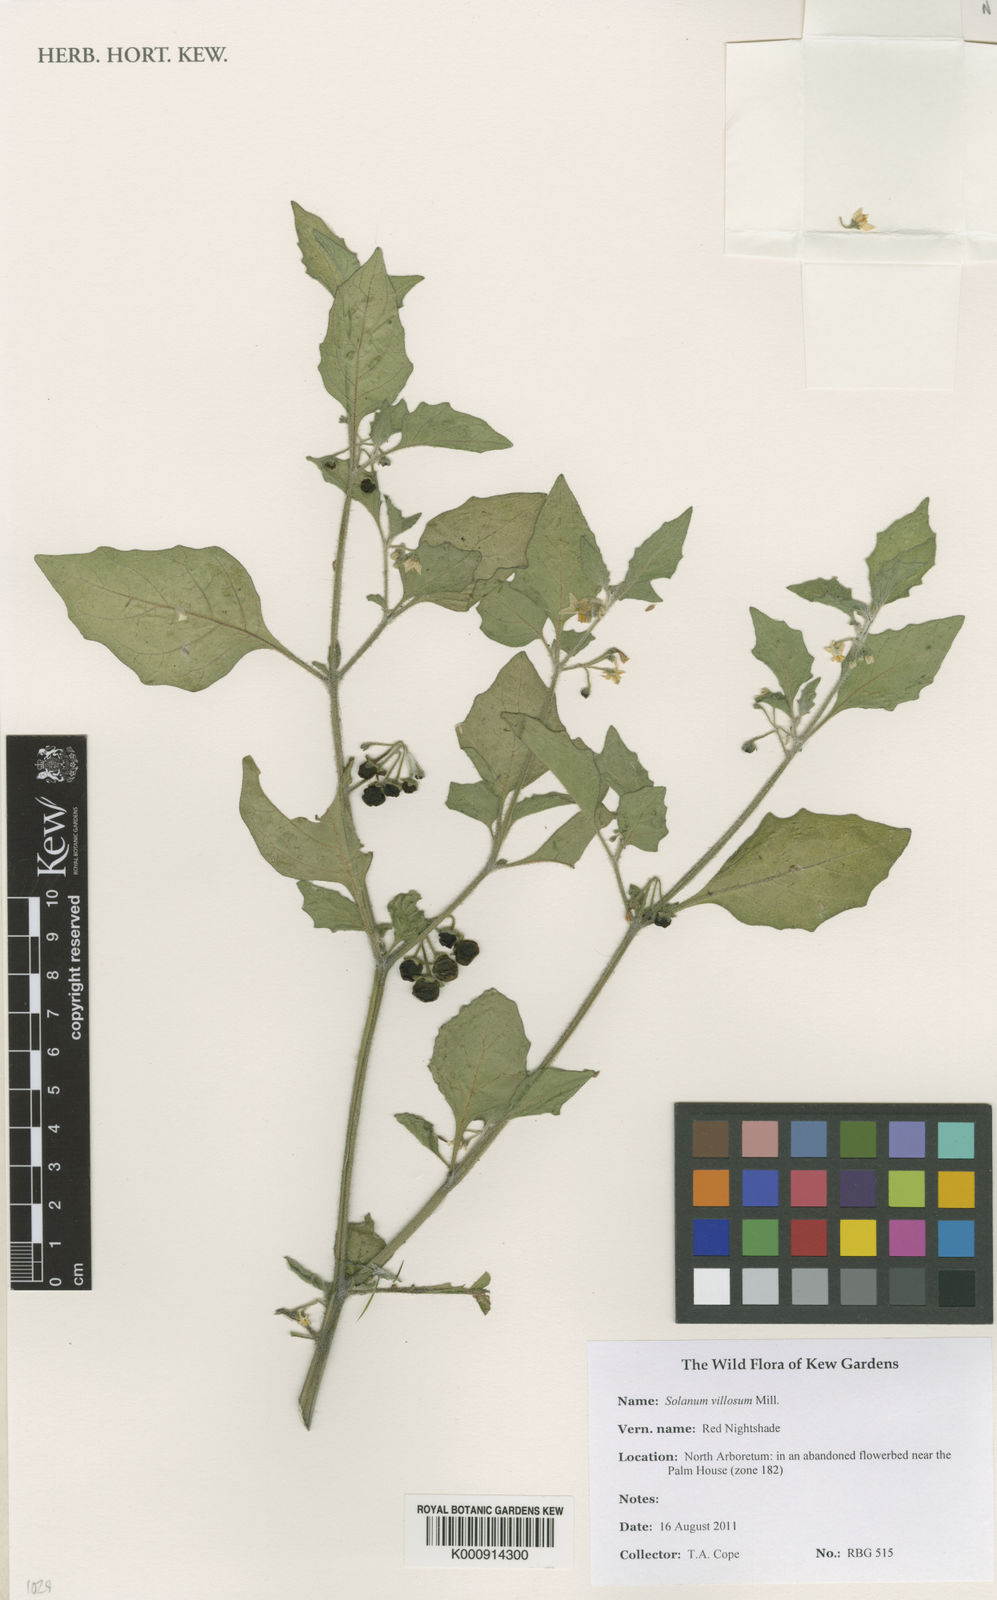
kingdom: Plantae
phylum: Tracheophyta
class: Magnoliopsida
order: Solanales
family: Solanaceae
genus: Solanum
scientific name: Solanum villosum
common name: Red nightshade
